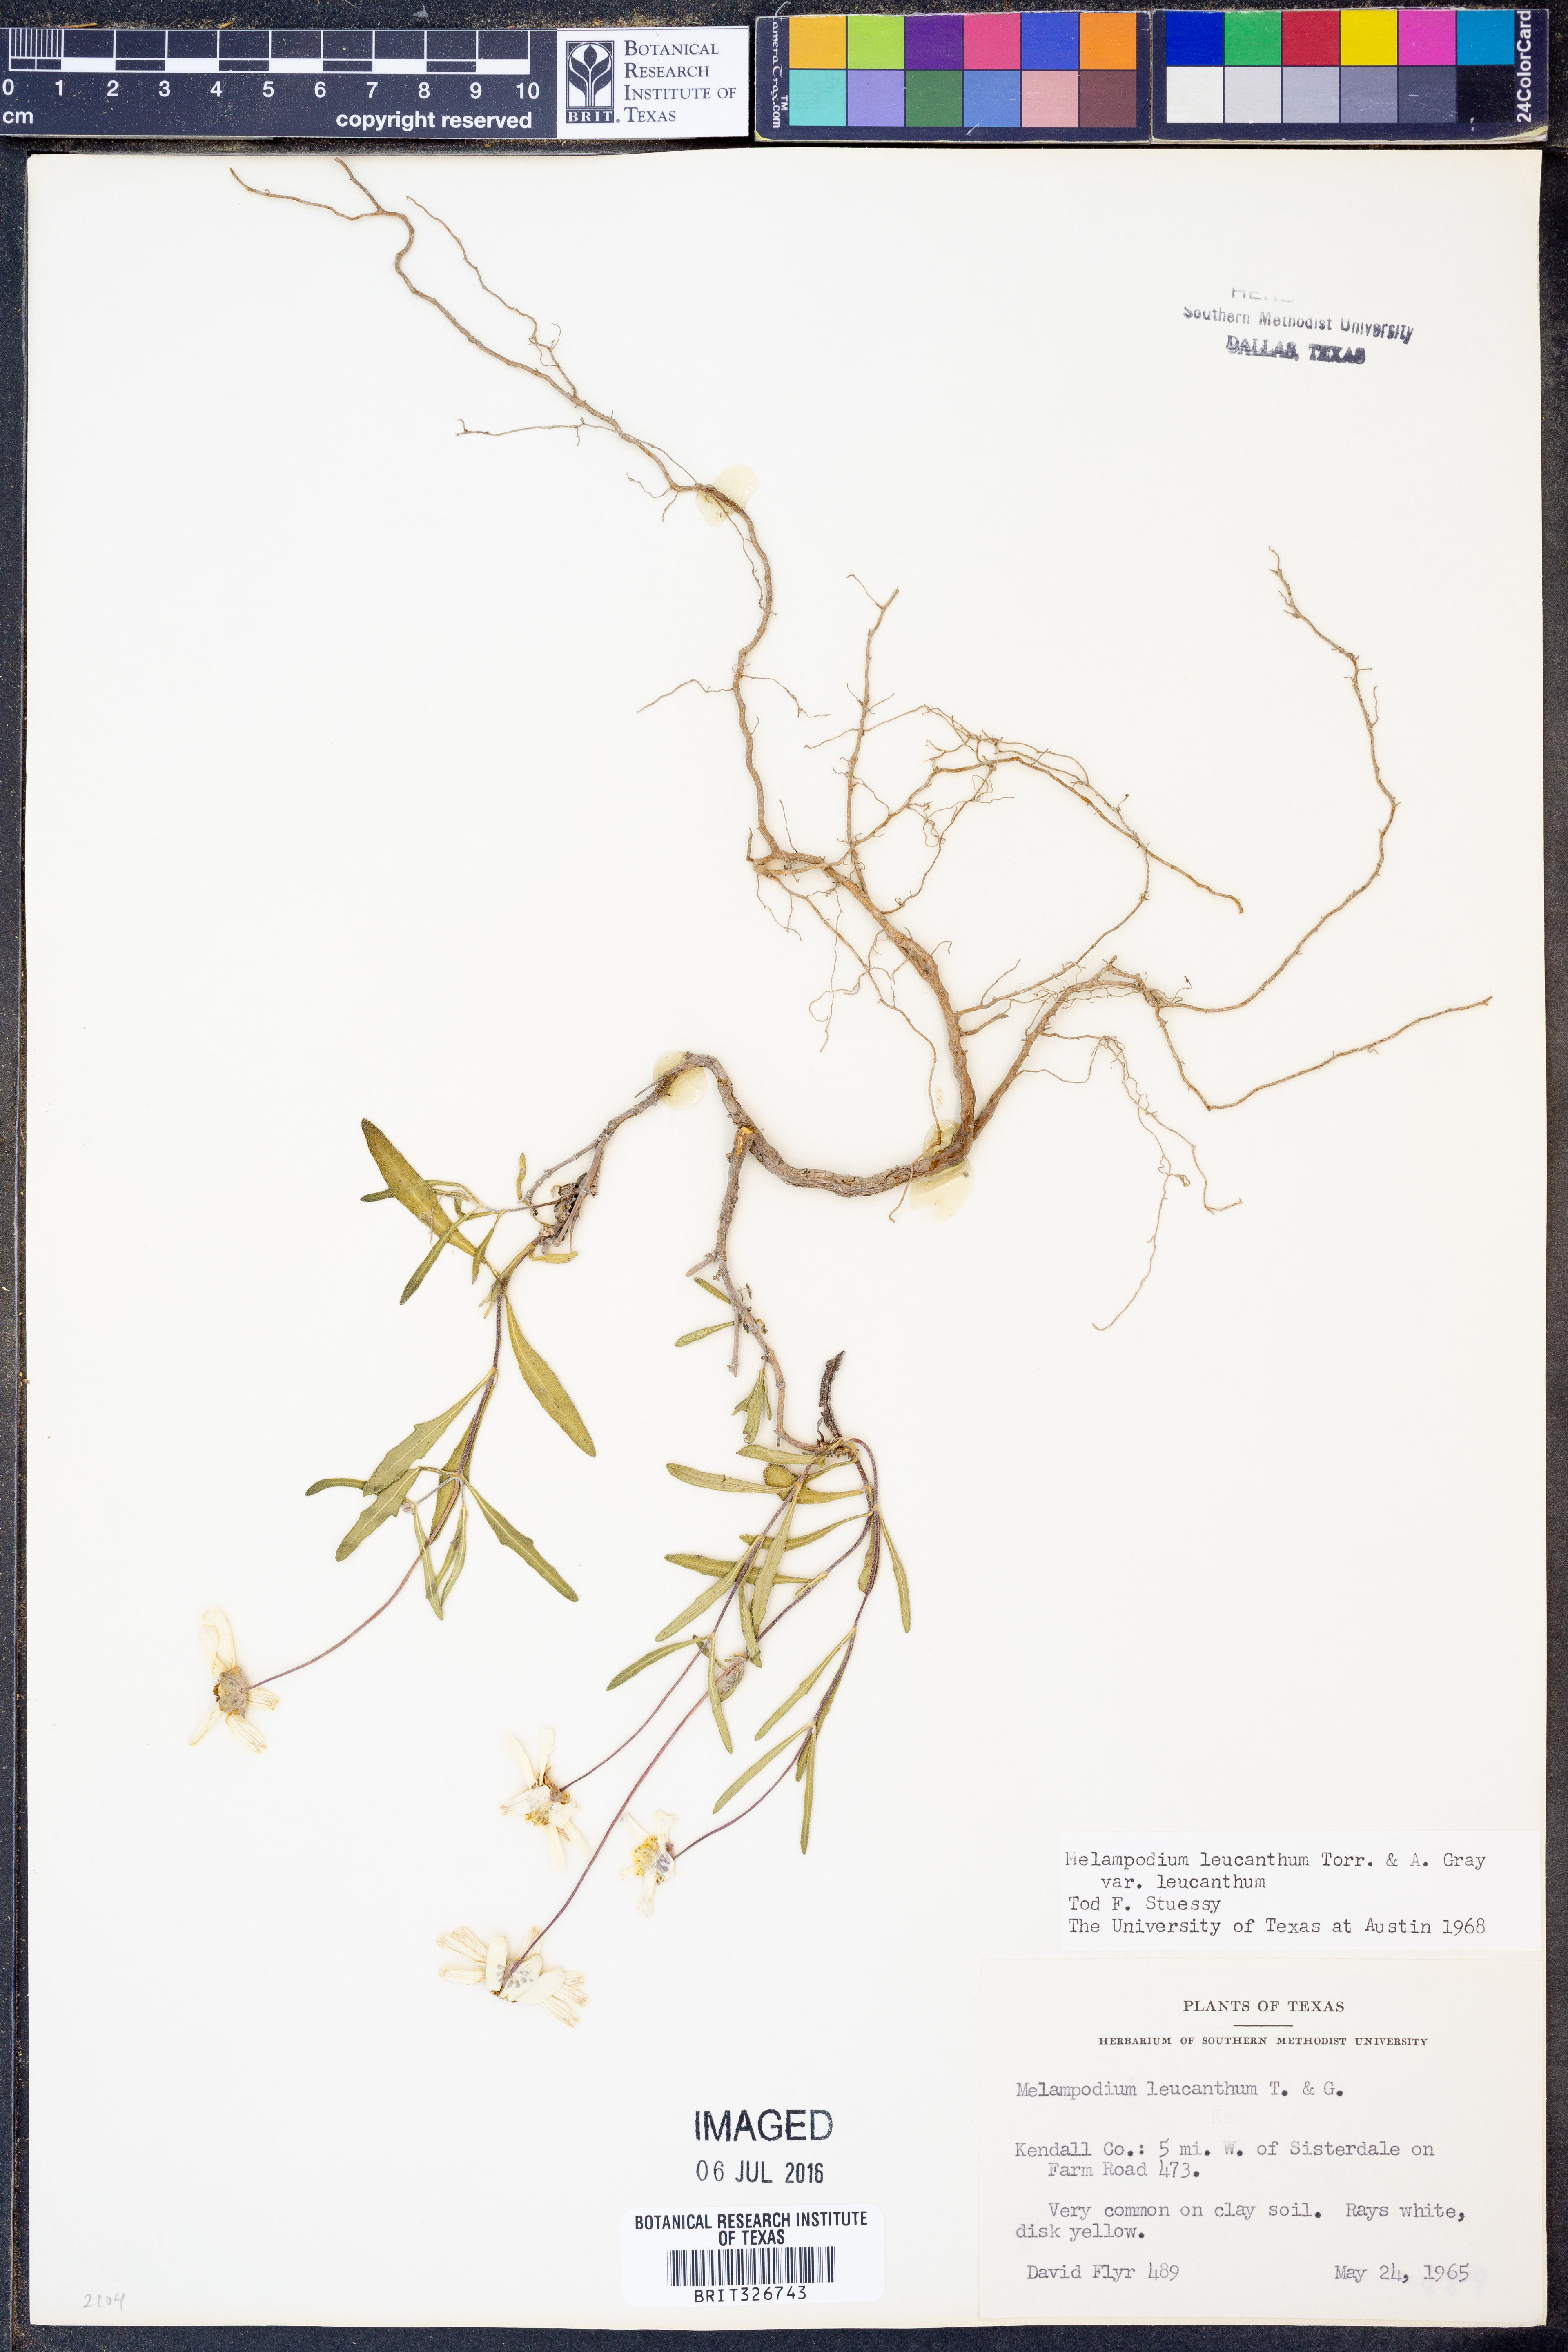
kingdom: Plantae
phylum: Tracheophyta
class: Magnoliopsida
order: Asterales
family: Asteraceae
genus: Melampodium
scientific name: Melampodium leucanthum
